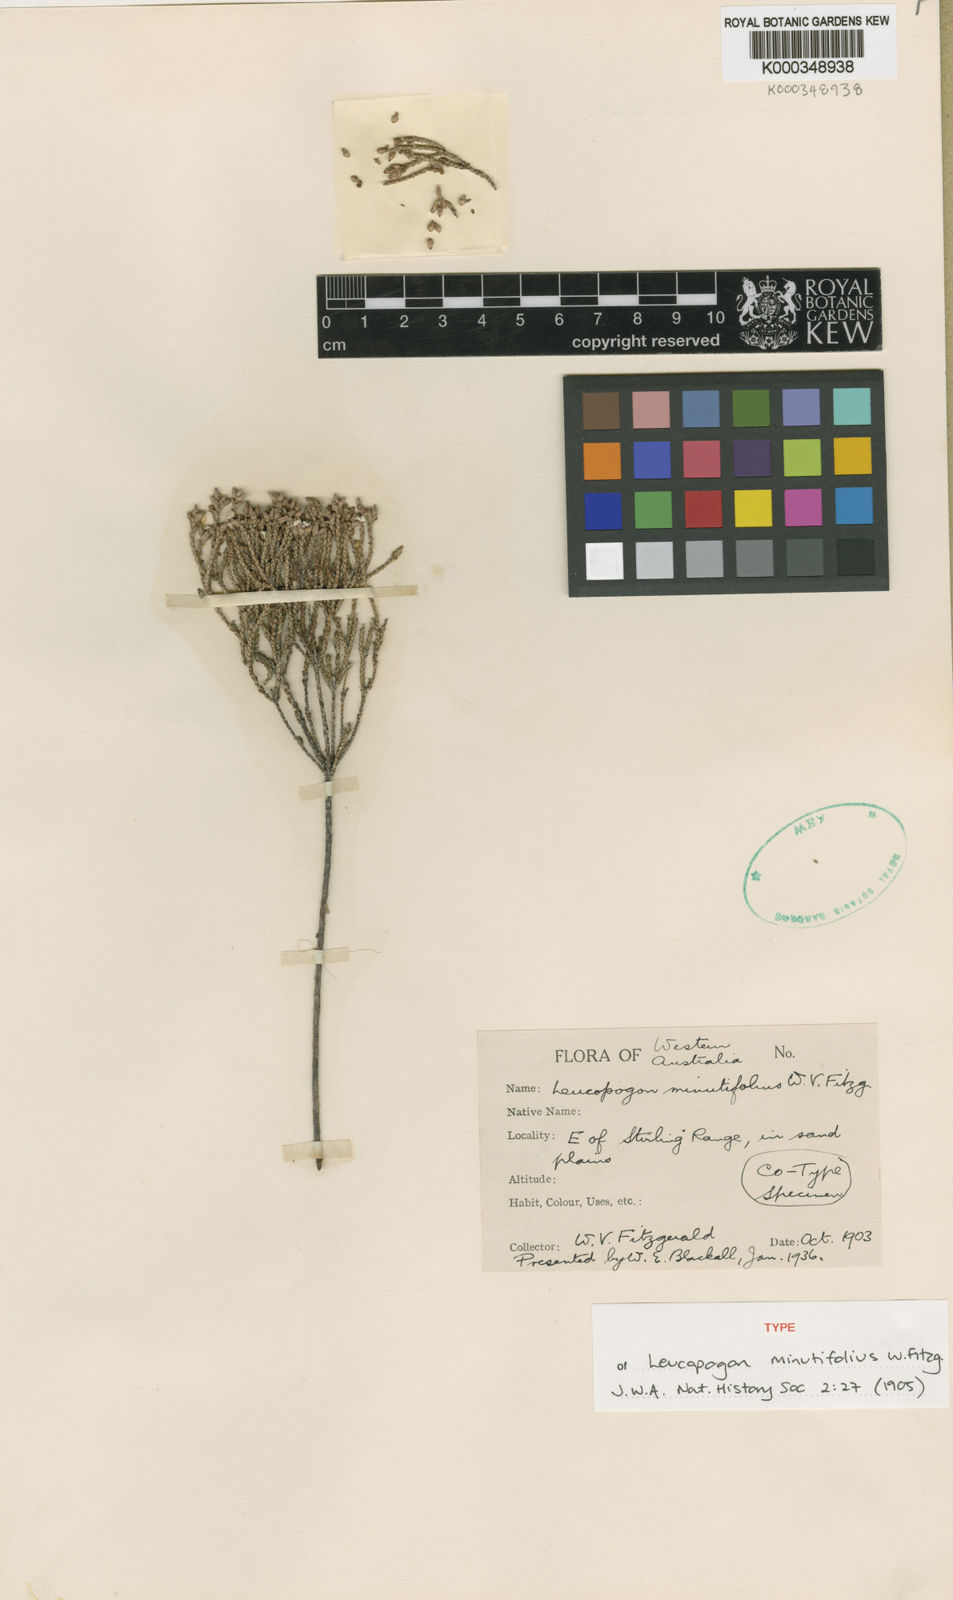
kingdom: Plantae
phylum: Tracheophyta
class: Magnoliopsida
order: Ericales
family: Ericaceae
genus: Leucopogon
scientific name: Leucopogon obtusatus
